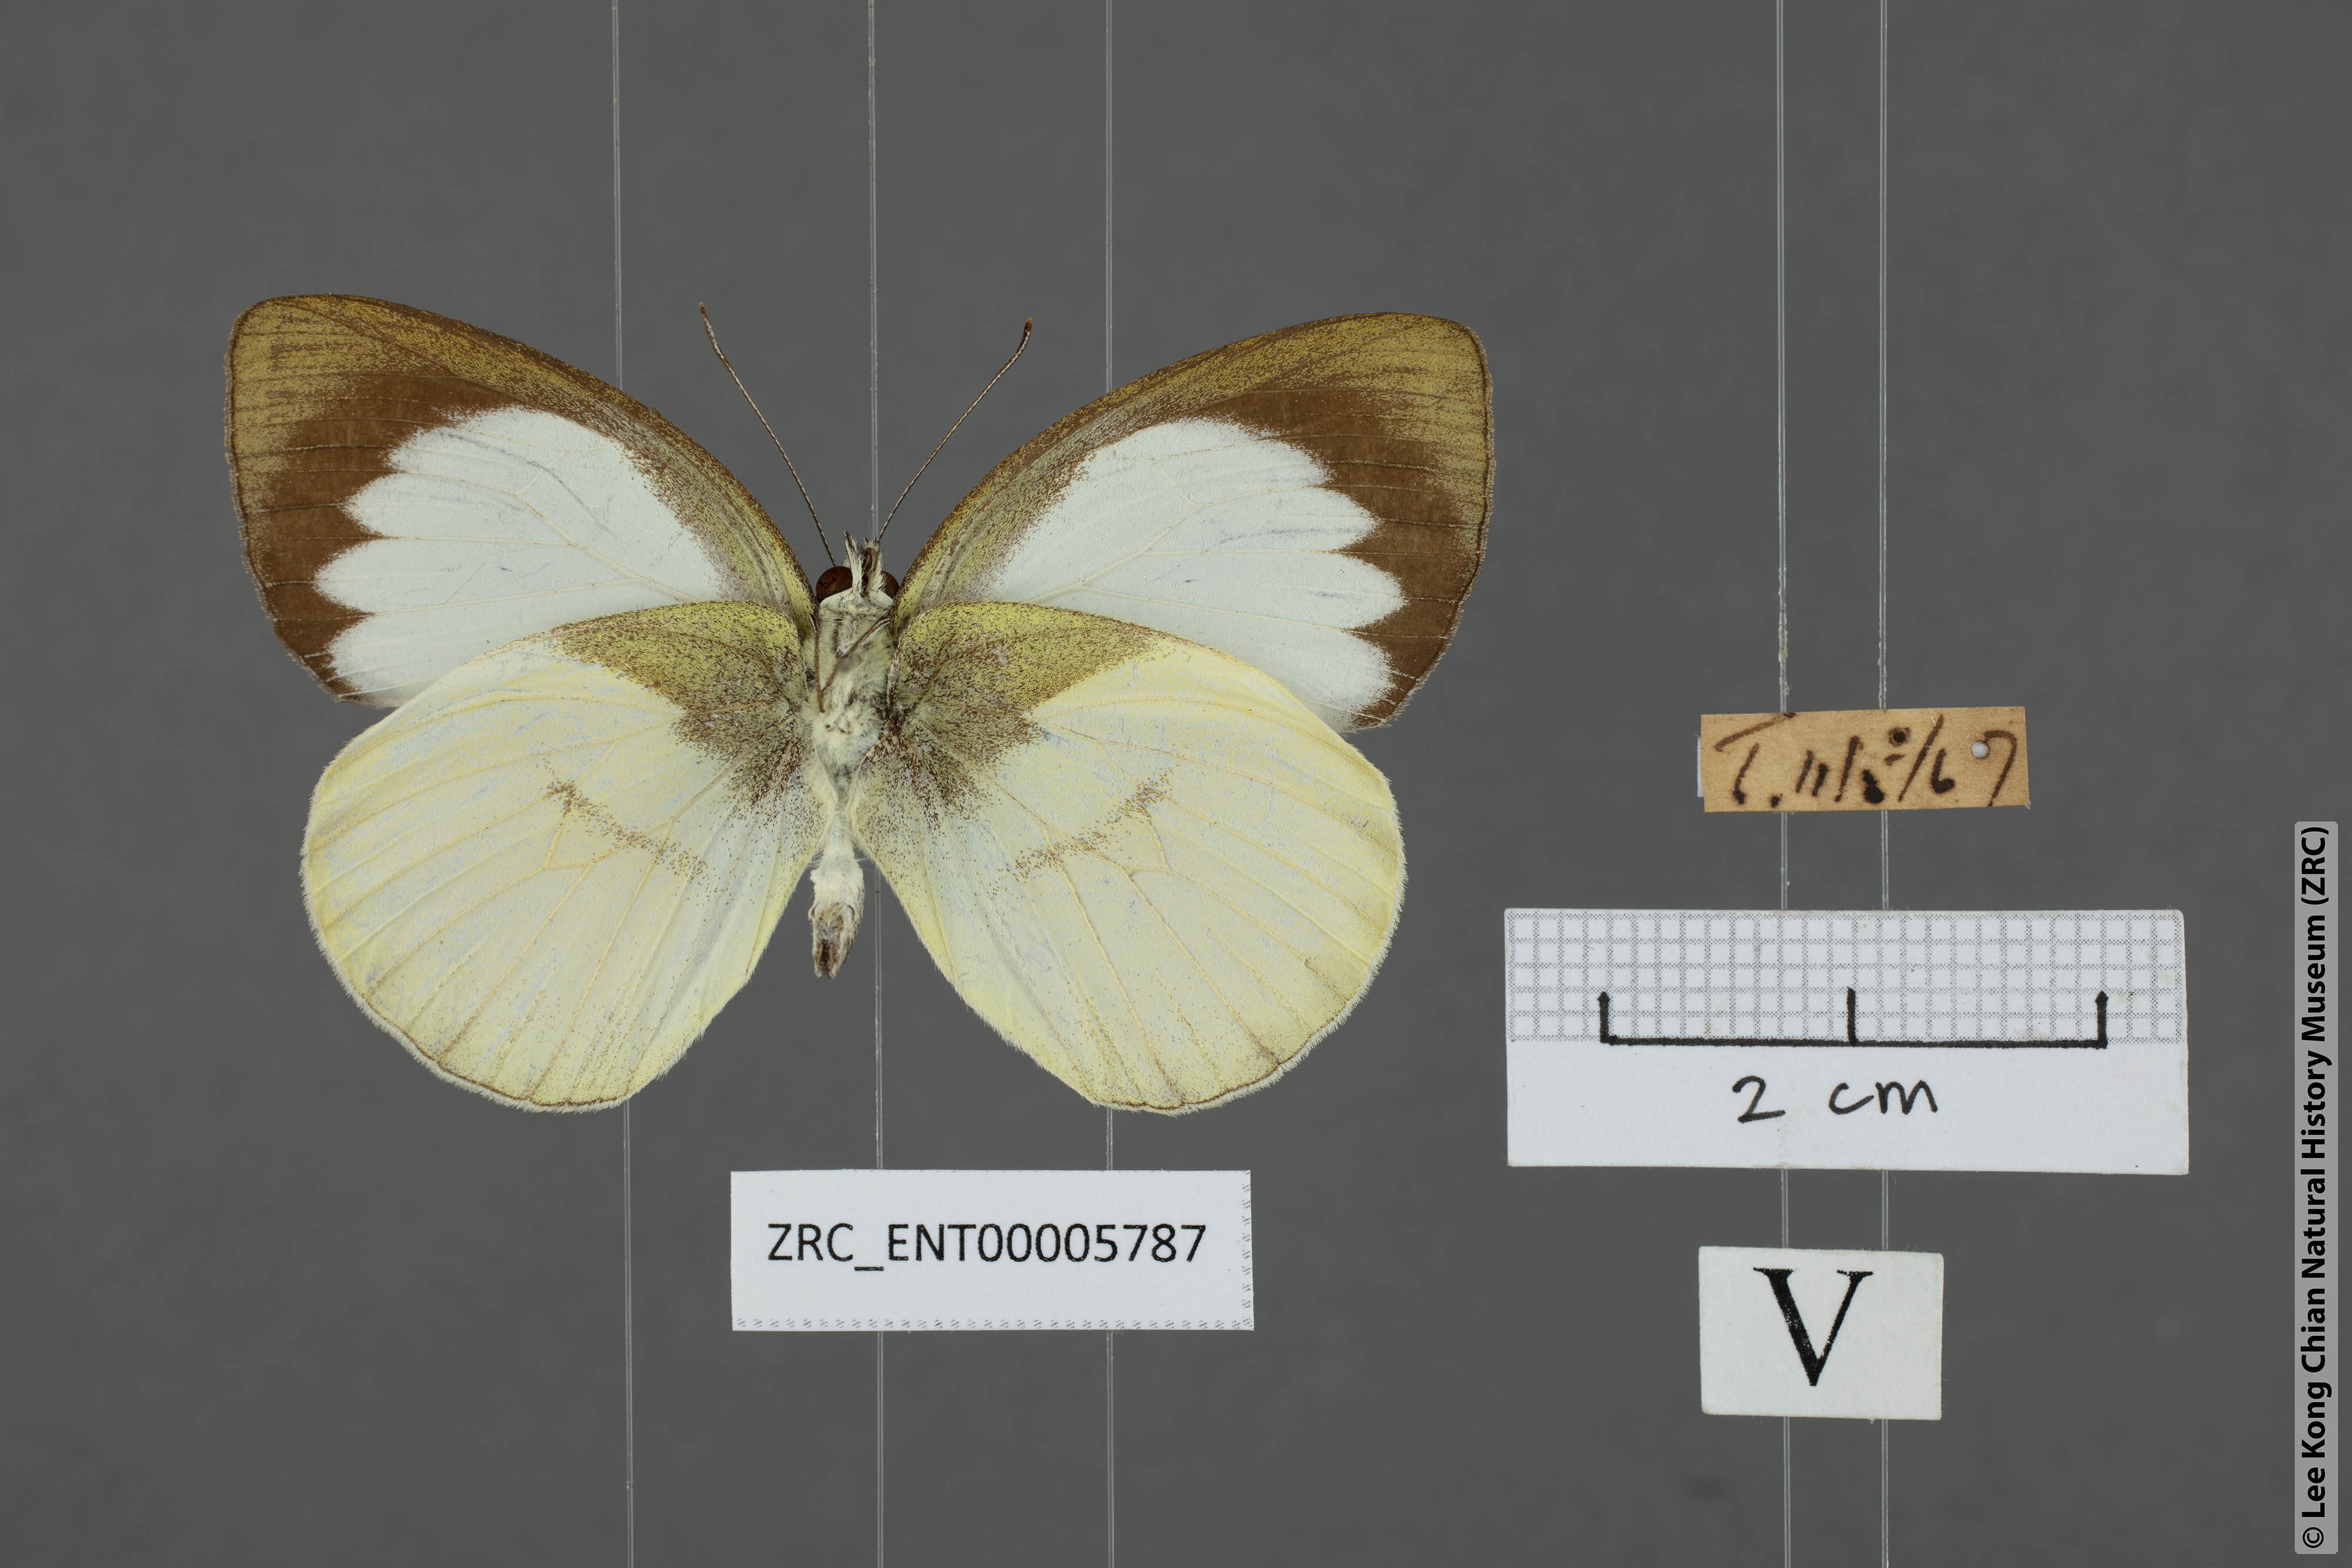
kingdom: Animalia
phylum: Arthropoda
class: Insecta
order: Lepidoptera
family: Pieridae
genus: Phrissura
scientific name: Phrissura aegis
